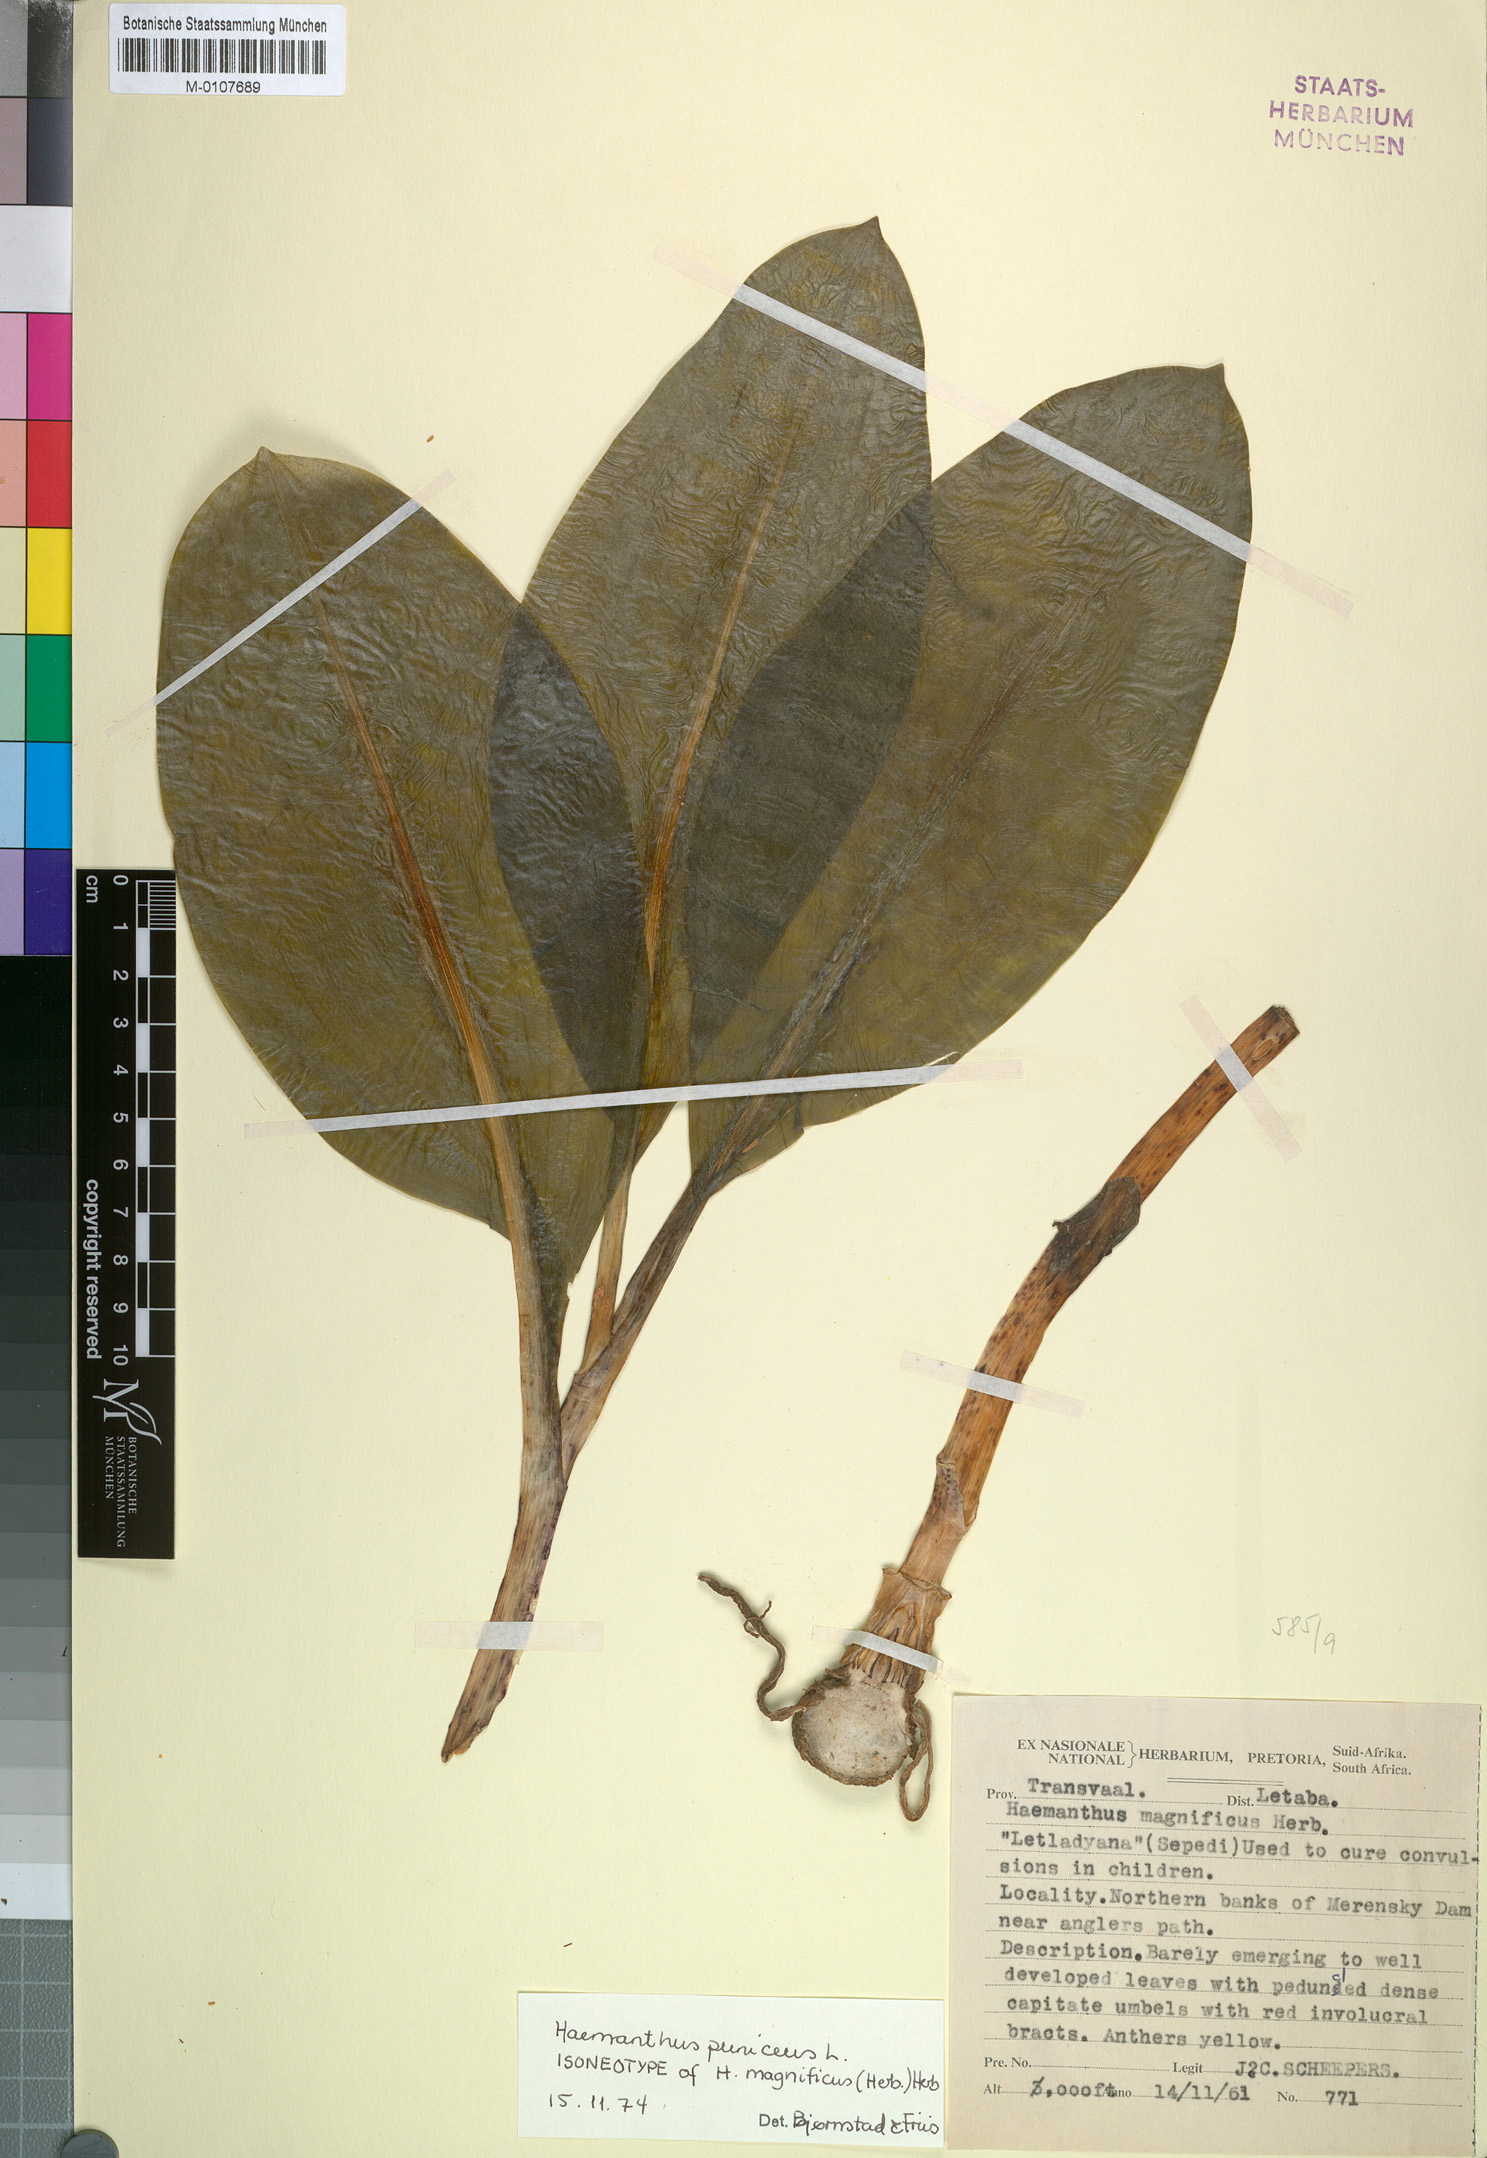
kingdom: Plantae
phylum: Tracheophyta
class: Liliopsida
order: Asparagales
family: Amaryllidaceae
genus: Scadoxus
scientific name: Scadoxus puniceus
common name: Royal-paintbrush
